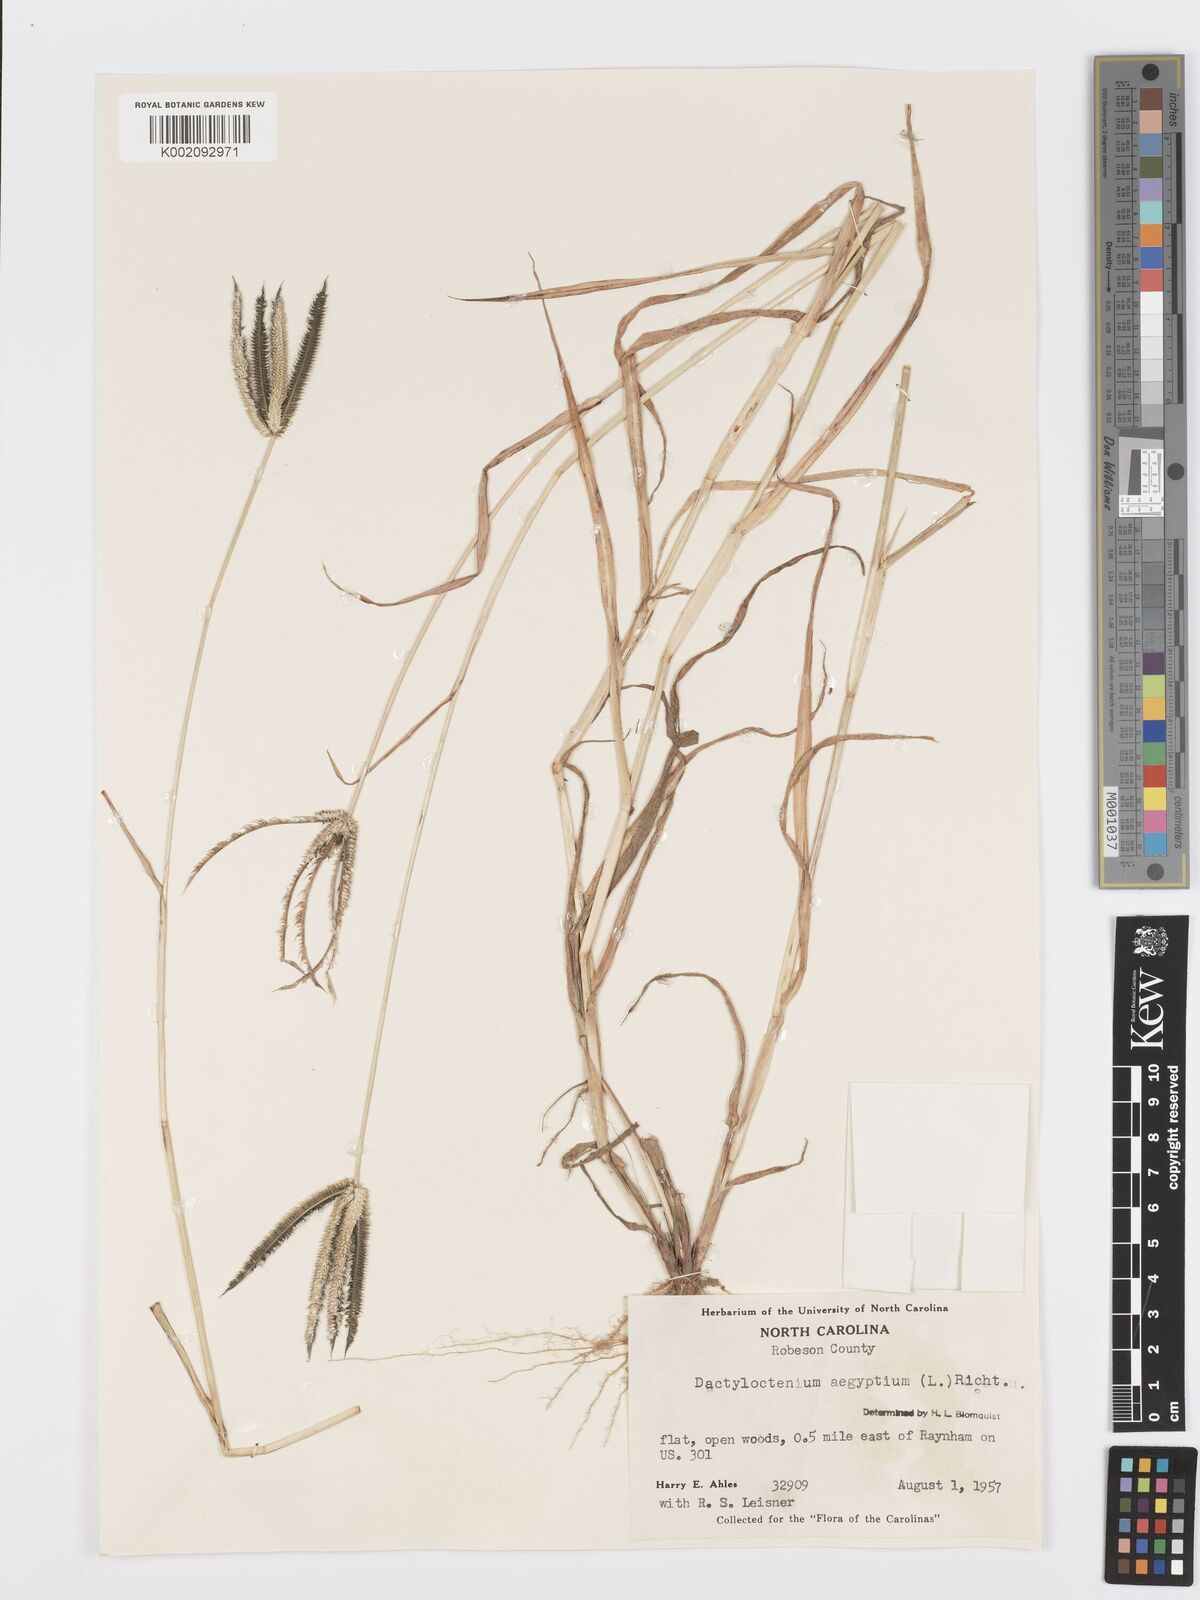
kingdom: Plantae
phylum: Tracheophyta
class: Liliopsida
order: Poales
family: Poaceae
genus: Dactyloctenium
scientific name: Dactyloctenium aegyptium
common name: Egyptian grass
